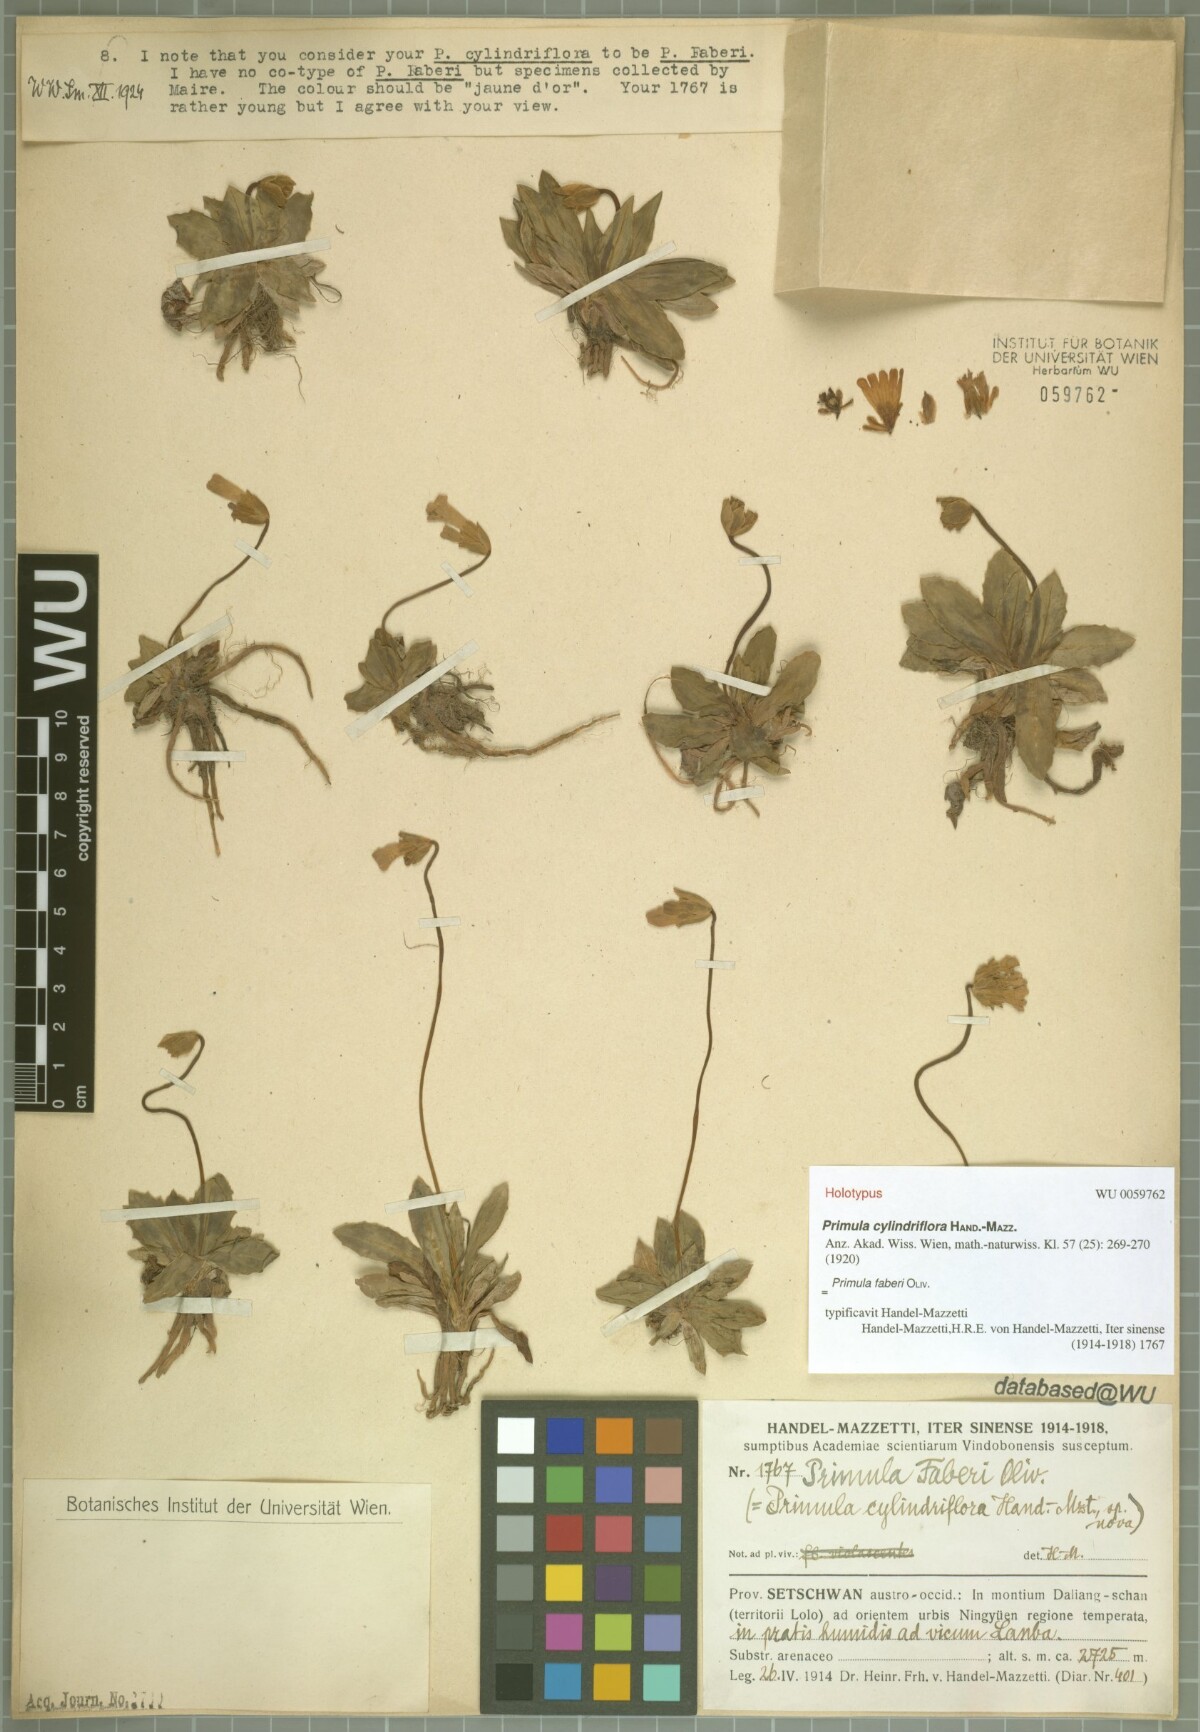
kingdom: Plantae
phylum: Tracheophyta
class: Magnoliopsida
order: Ericales
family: Primulaceae
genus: Primula
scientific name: Primula faberi
